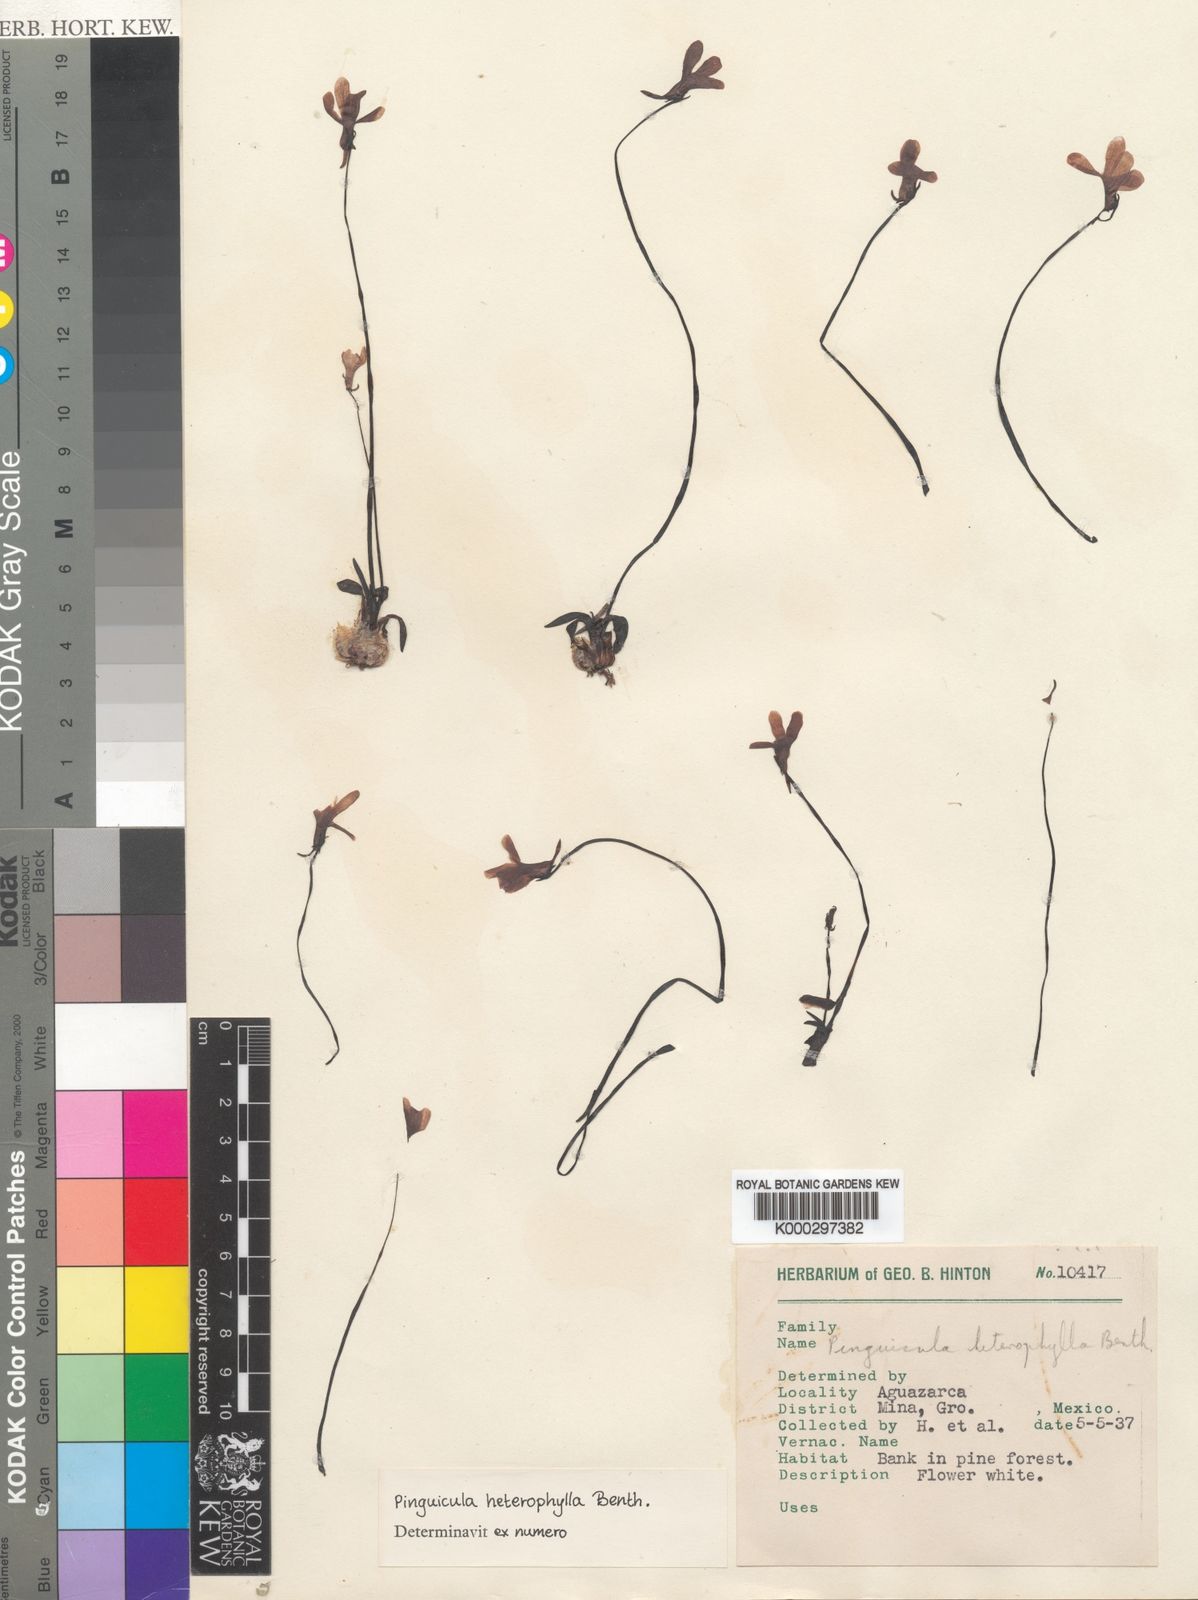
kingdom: Plantae
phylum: Tracheophyta
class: Magnoliopsida
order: Lamiales
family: Lentibulariaceae
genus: Pinguicula
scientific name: Pinguicula heterophylla
